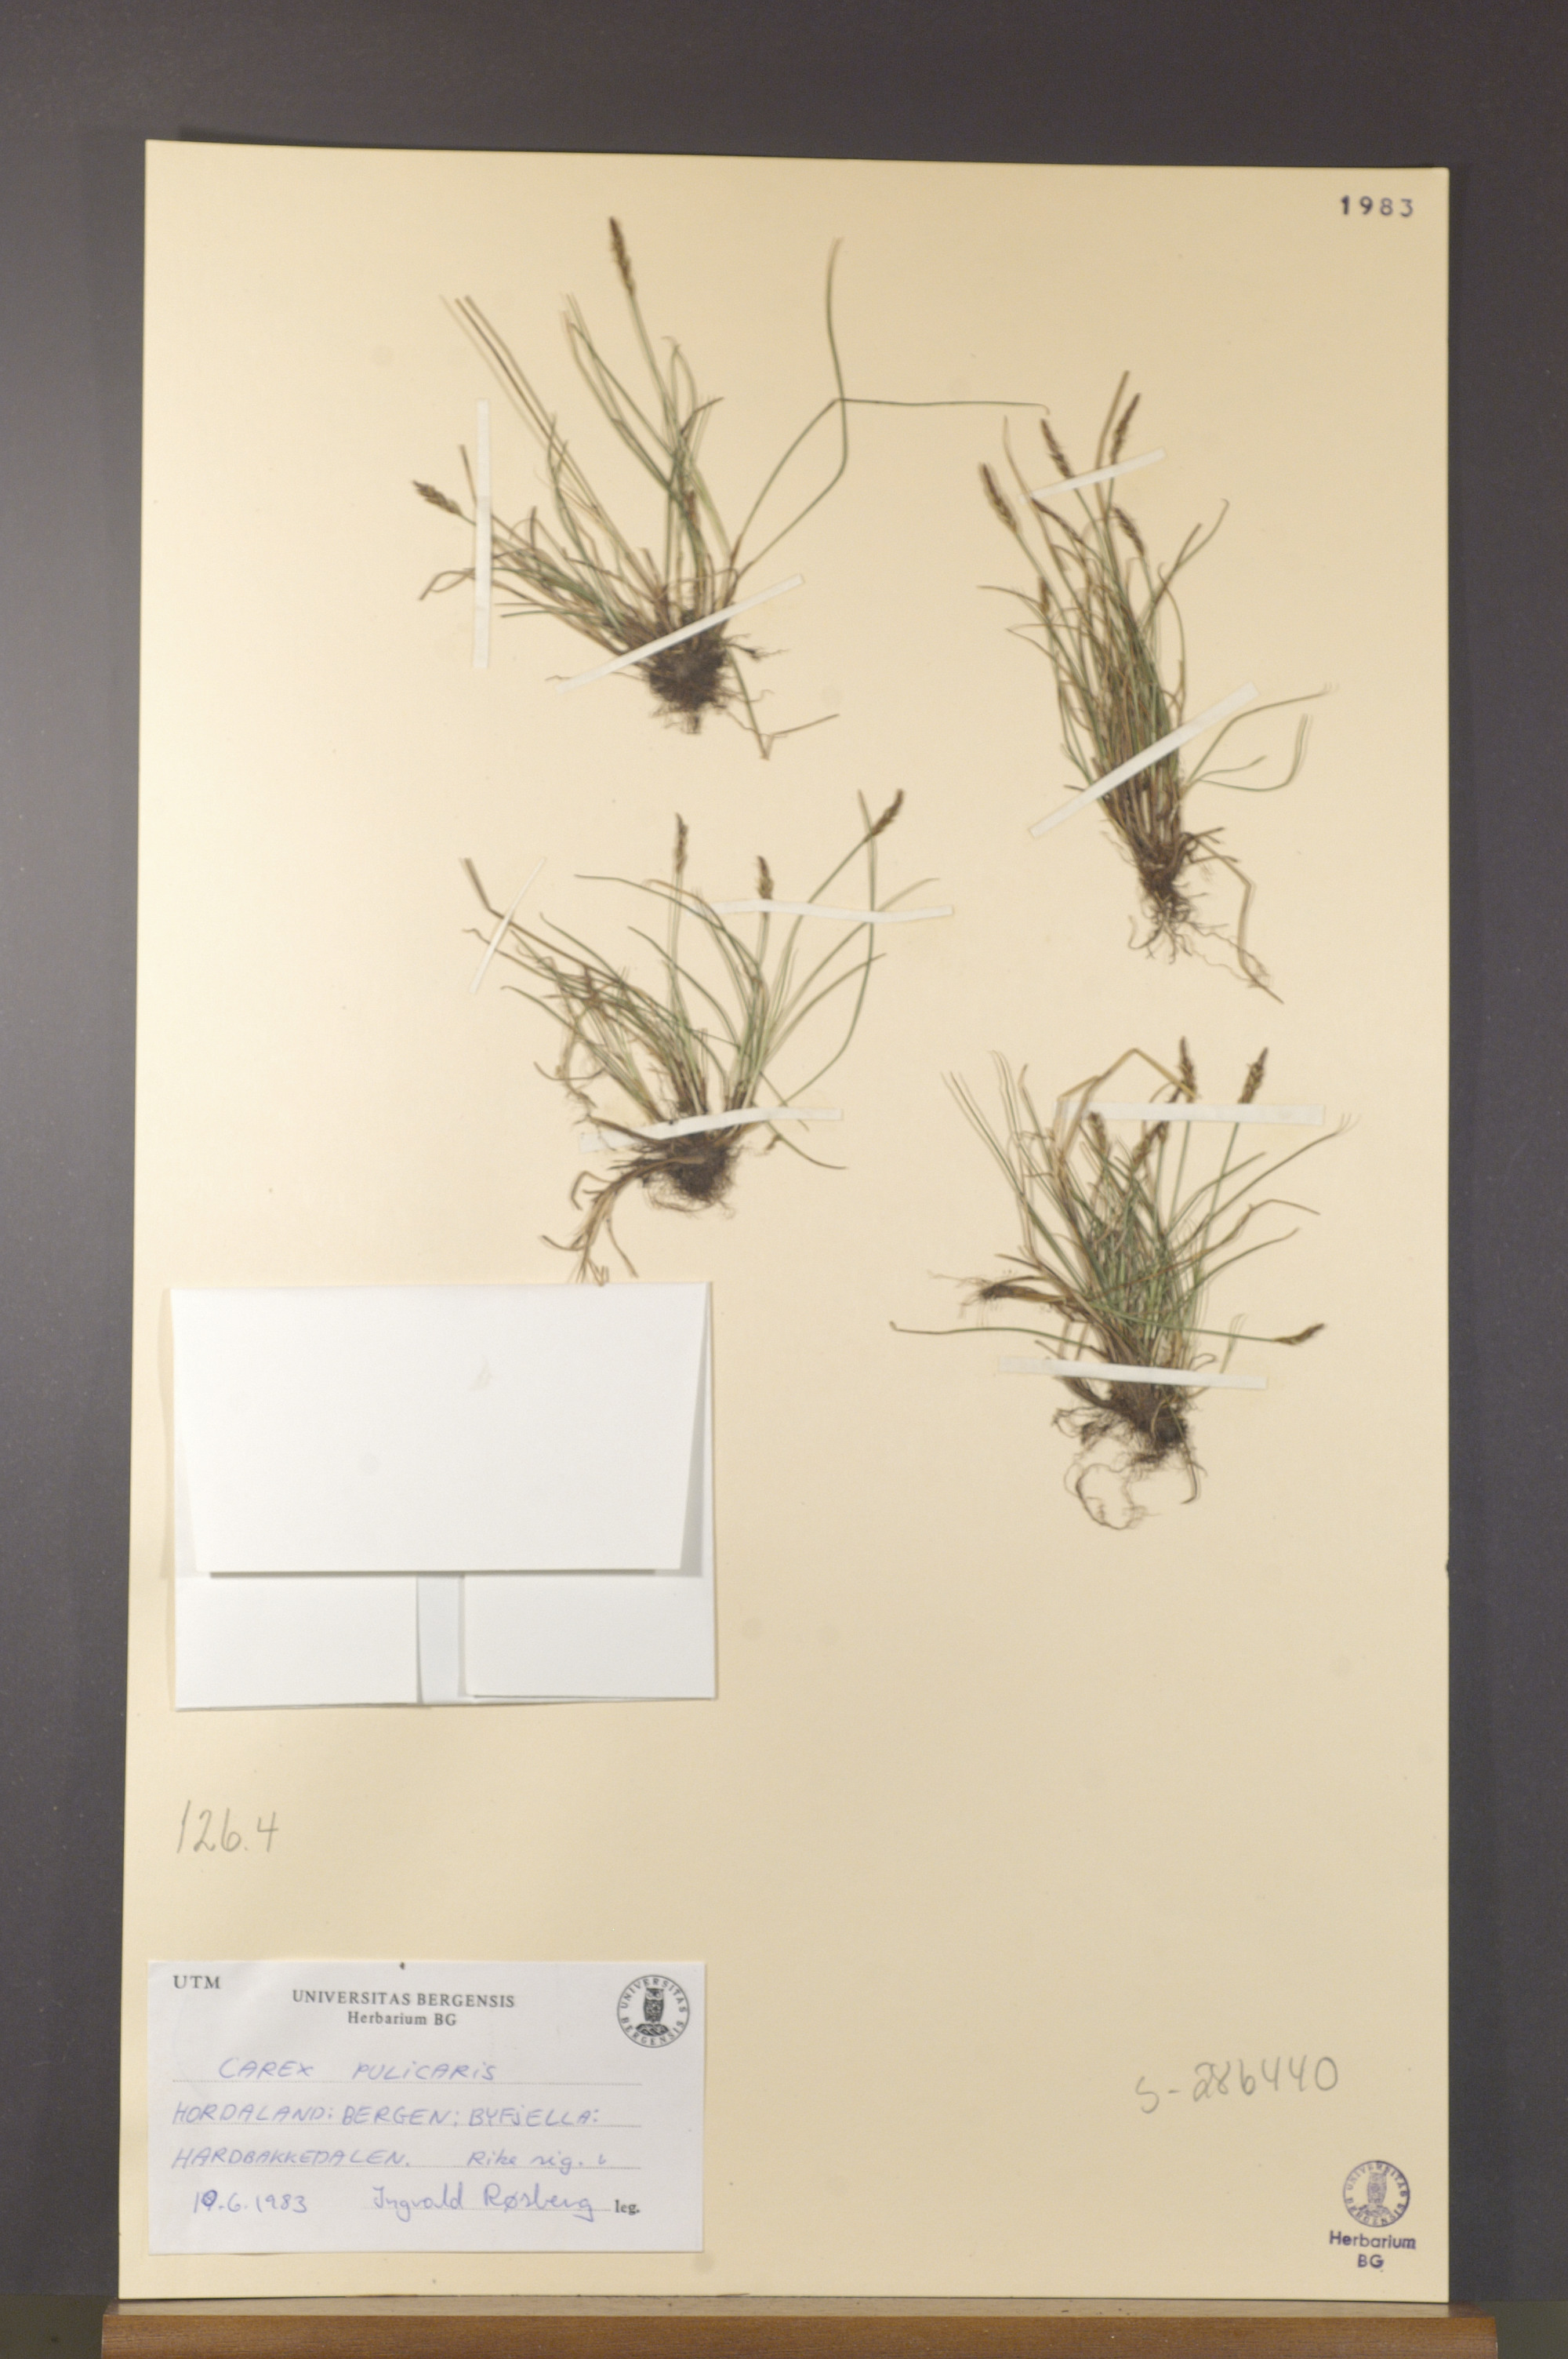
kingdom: Plantae
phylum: Tracheophyta
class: Liliopsida
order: Poales
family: Cyperaceae
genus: Carex
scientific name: Carex pulicaris
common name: Flea sedge
